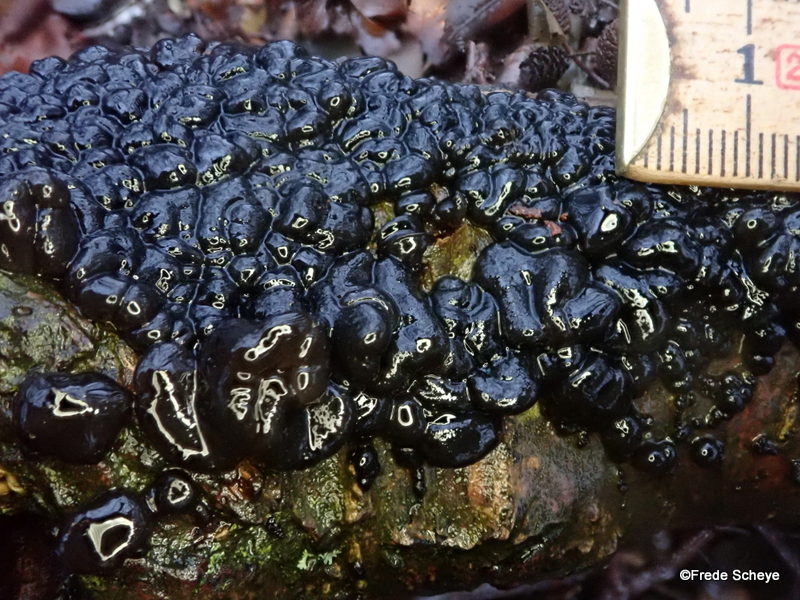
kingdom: Fungi
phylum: Basidiomycota
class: Agaricomycetes
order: Auriculariales
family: Auriculariaceae
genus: Exidia
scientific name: Exidia nigricans
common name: almindelig bævretop
